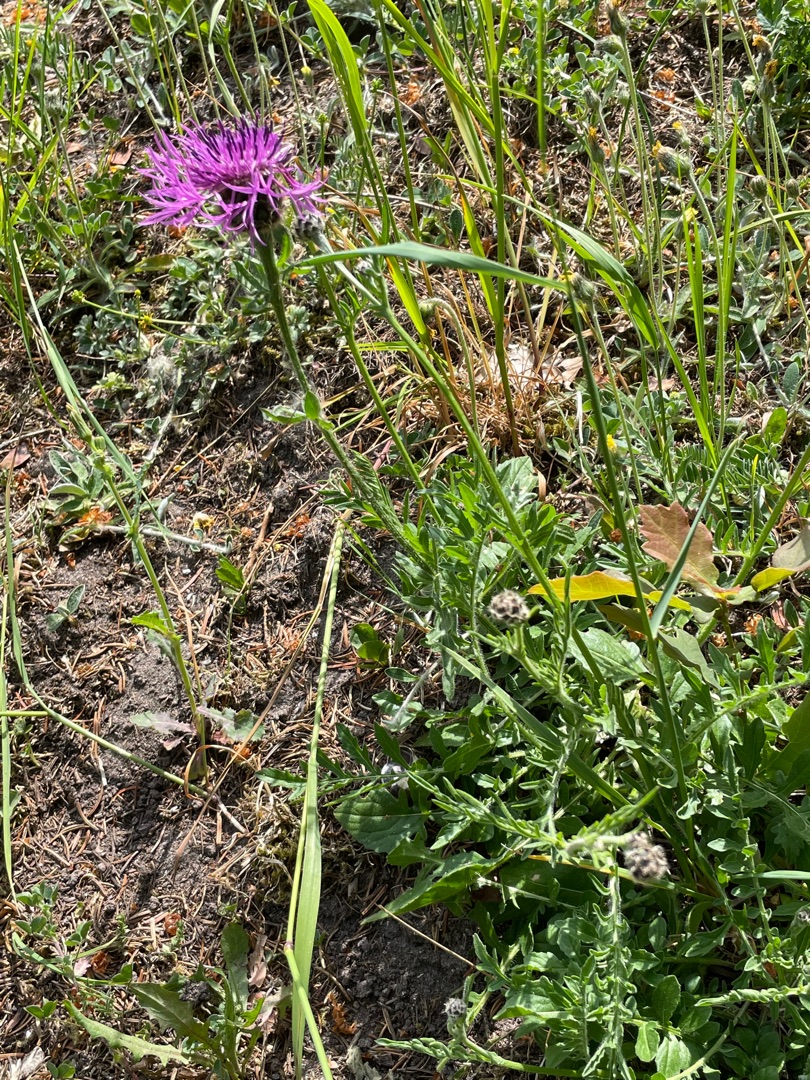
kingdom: Plantae
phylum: Tracheophyta
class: Magnoliopsida
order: Asterales
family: Asteraceae
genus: Centaurea
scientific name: Centaurea scabiosa
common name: Stor knopurt
